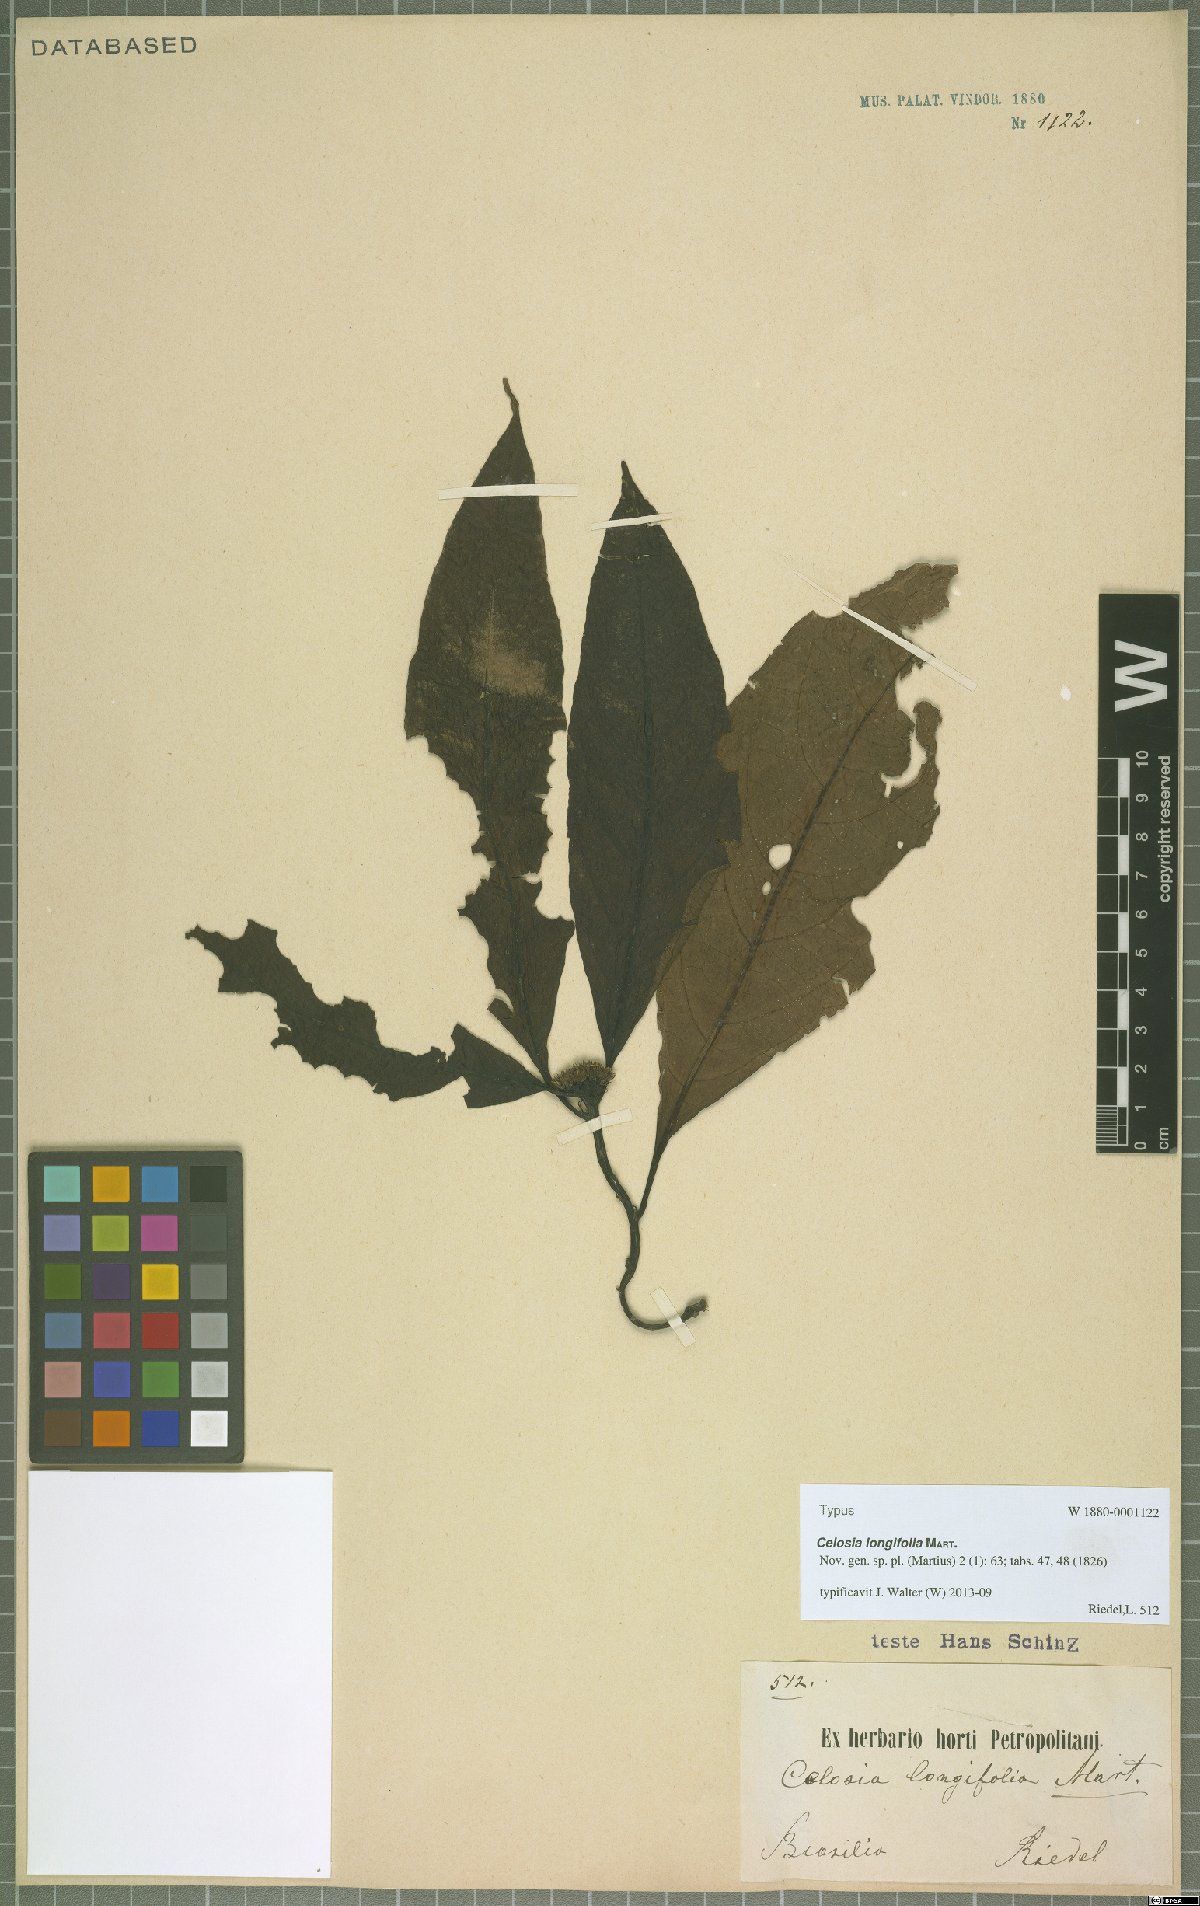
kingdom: Plantae
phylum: Tracheophyta
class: Magnoliopsida
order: Caryophyllales
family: Amaranthaceae
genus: Celosia
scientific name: Celosia longifolia
